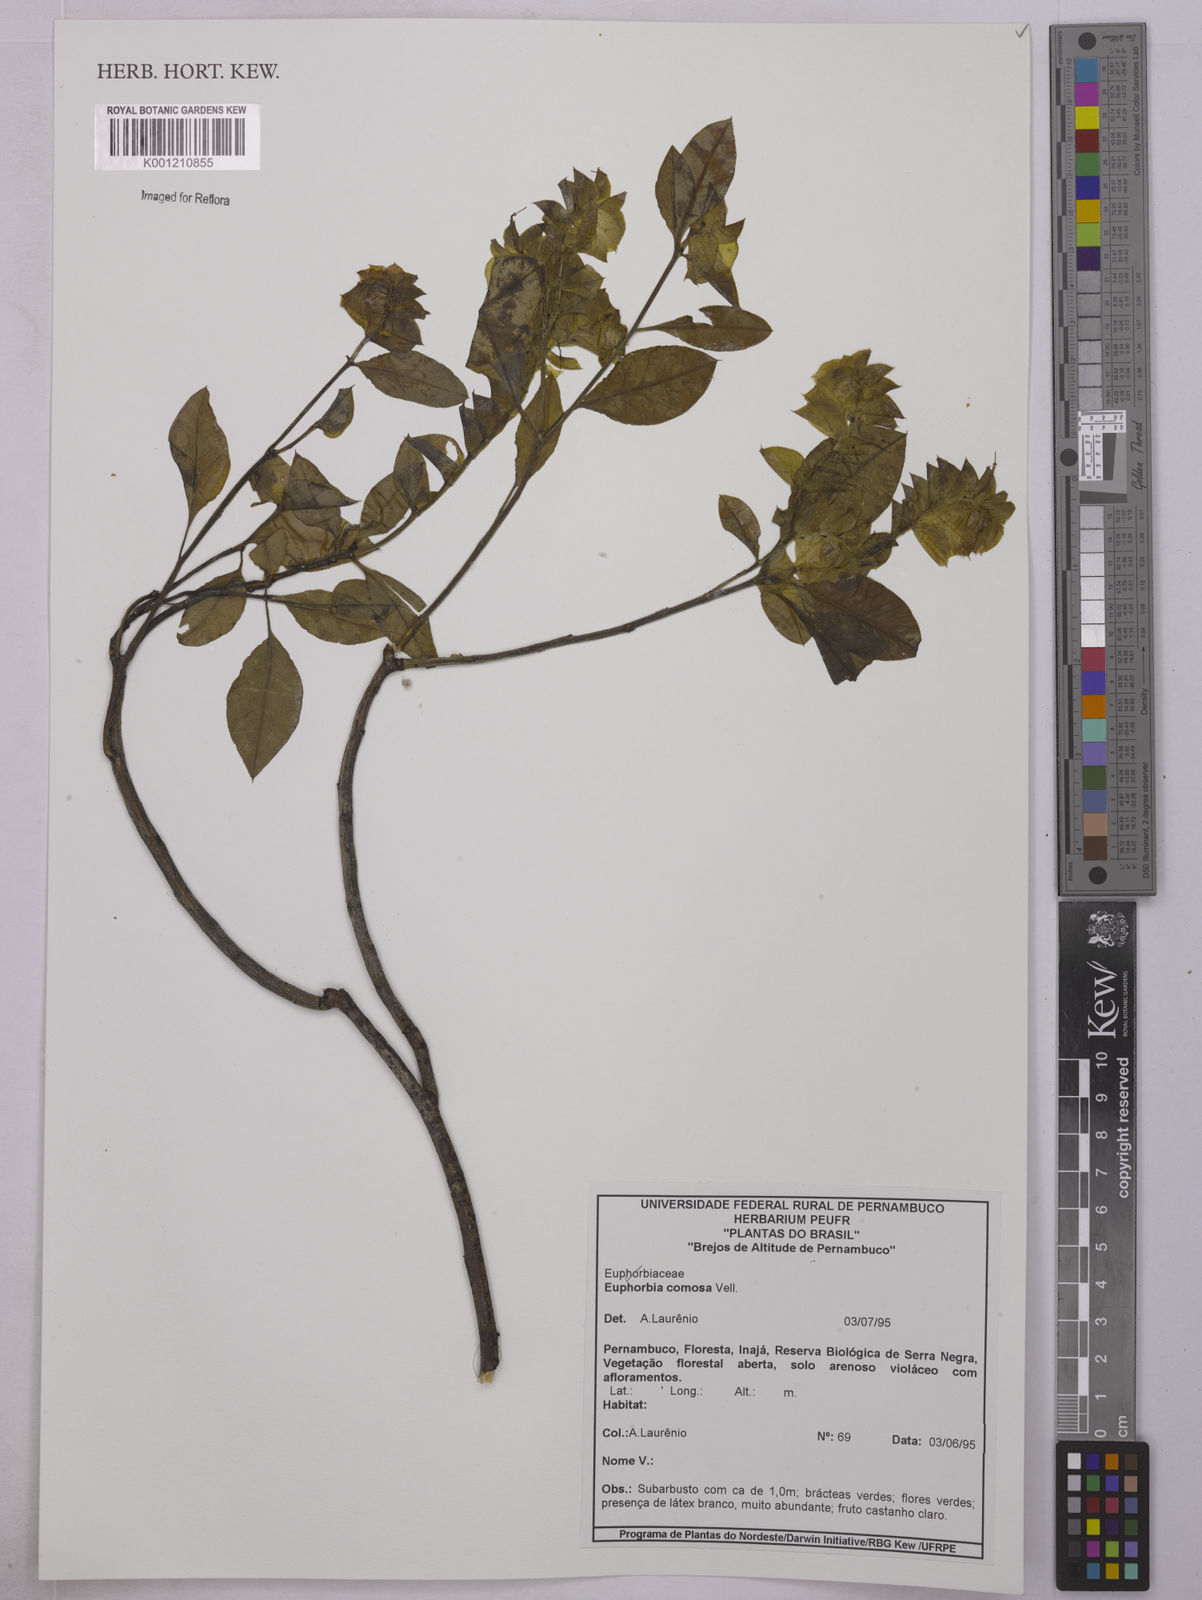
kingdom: Plantae
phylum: Tracheophyta
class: Magnoliopsida
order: Malpighiales
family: Euphorbiaceae
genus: Euphorbia
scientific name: Euphorbia comosa
